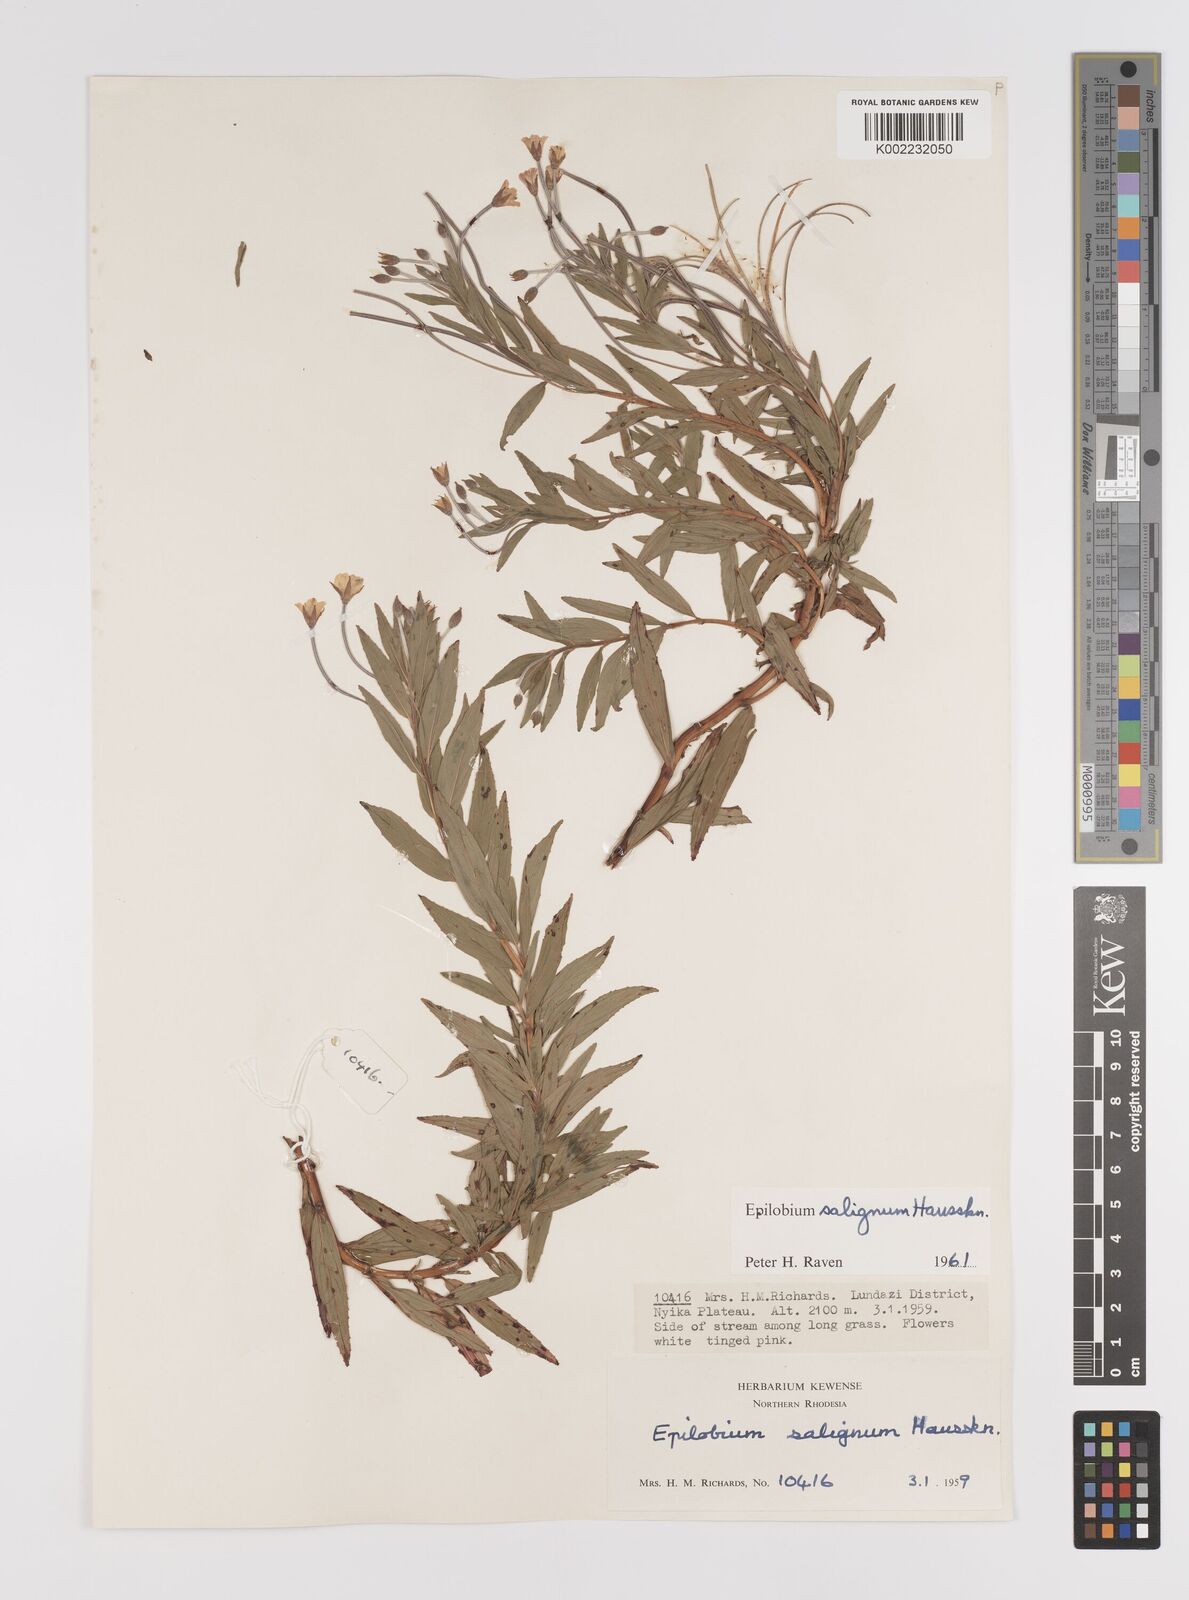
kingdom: Plantae
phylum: Tracheophyta
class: Magnoliopsida
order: Myrtales
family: Onagraceae
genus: Epilobium
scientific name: Epilobium salignum
